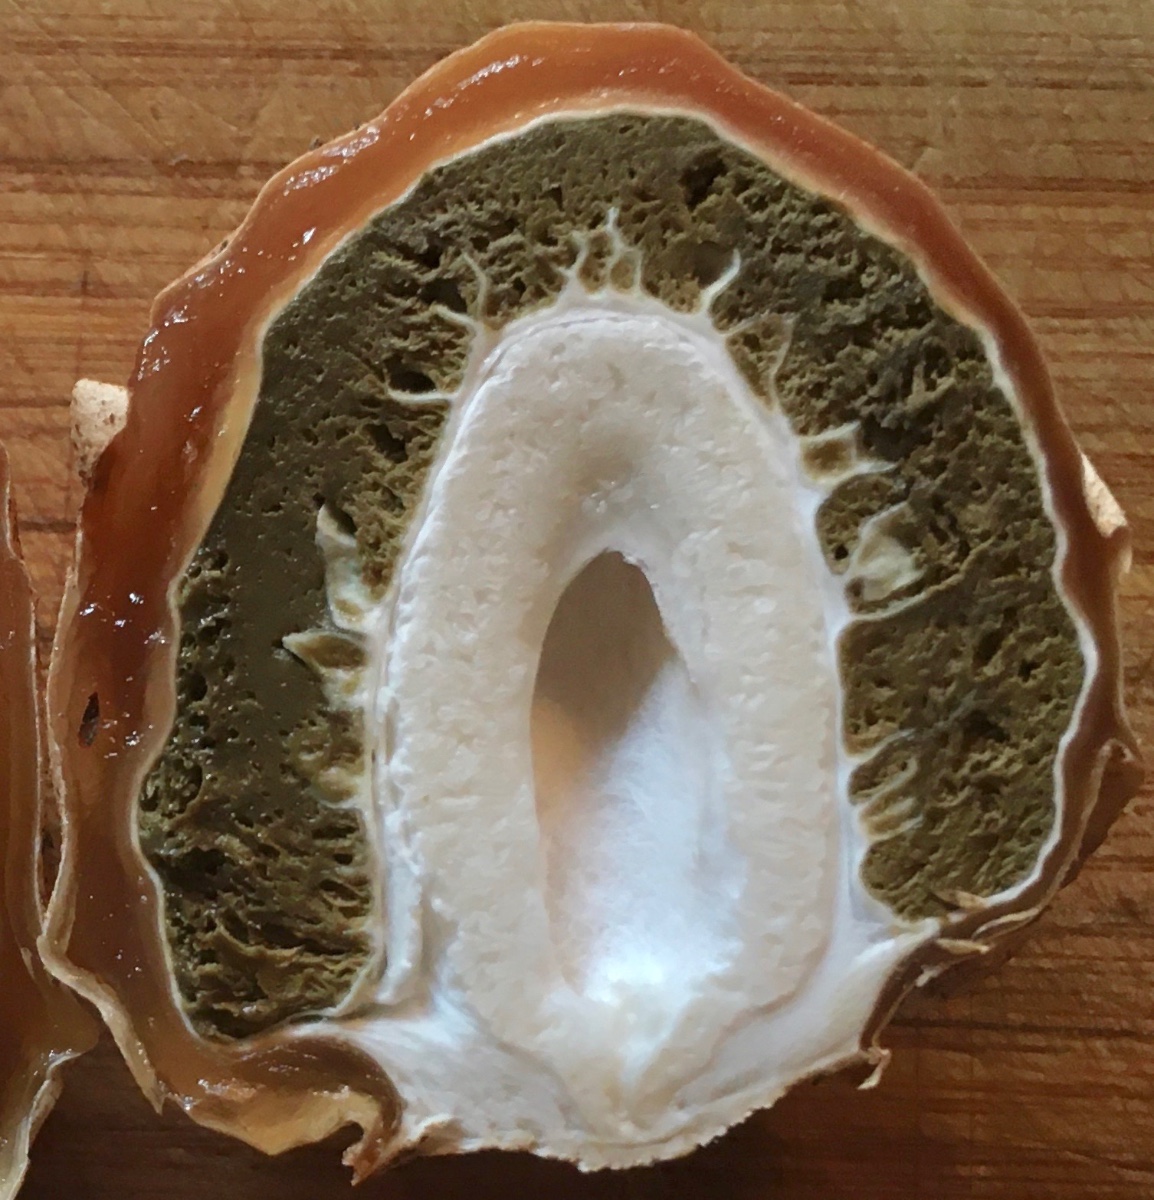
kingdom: Fungi
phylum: Basidiomycota
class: Agaricomycetes
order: Phallales
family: Phallaceae
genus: Phallus
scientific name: Phallus impudicus
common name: almindelig stinksvamp
